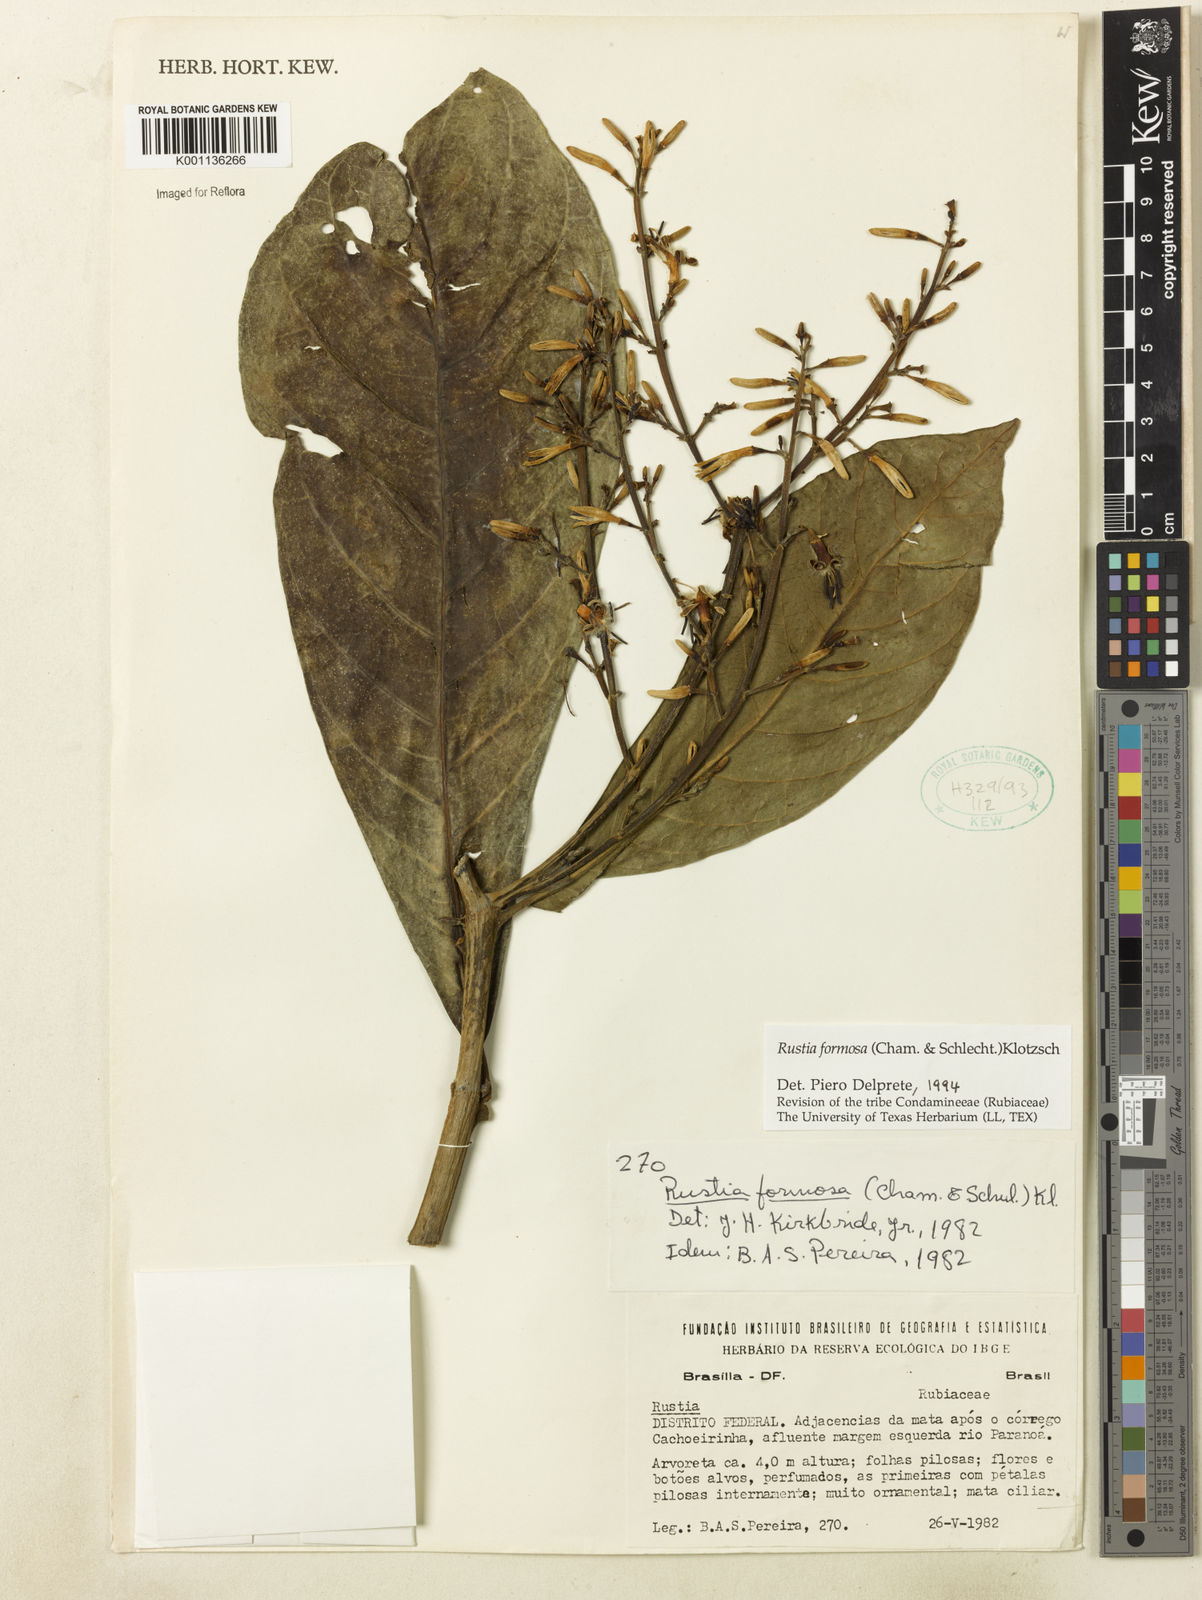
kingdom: Plantae
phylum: Tracheophyta
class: Magnoliopsida
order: Gentianales
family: Rubiaceae
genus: Rustia
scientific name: Rustia formosa
